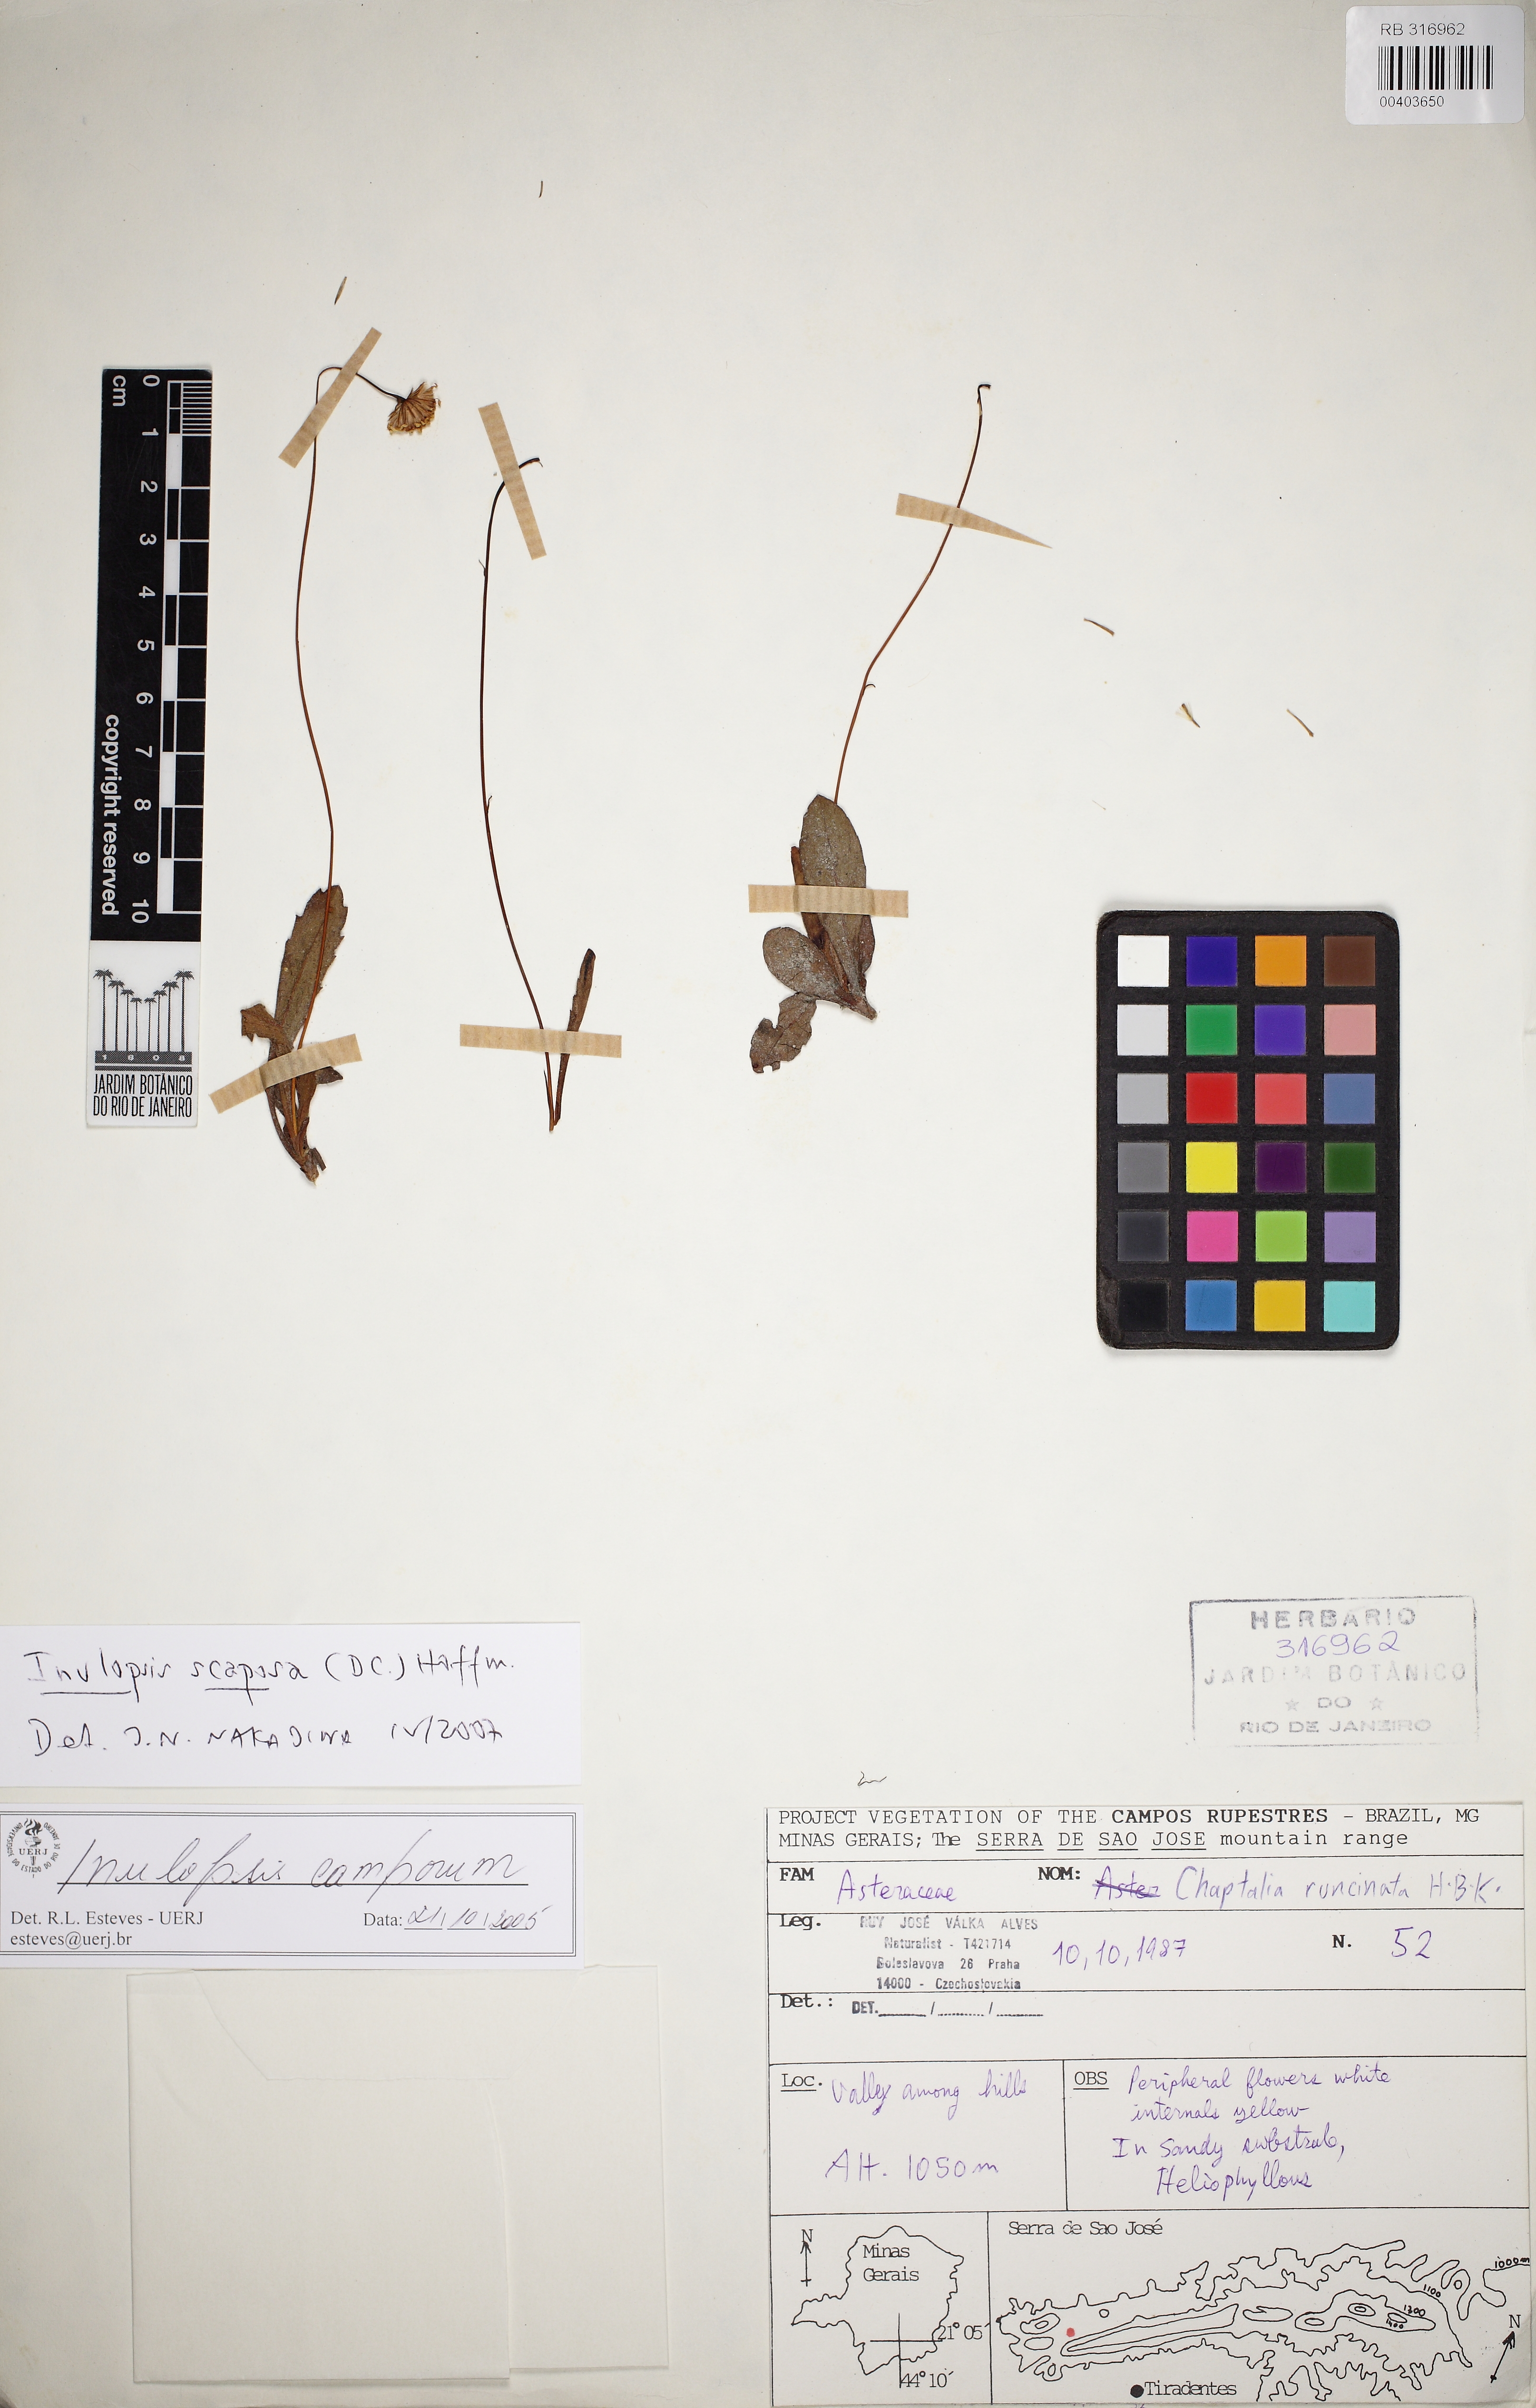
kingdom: Plantae
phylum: Tracheophyta
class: Magnoliopsida
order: Asterales
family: Asteraceae
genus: Inulopsis
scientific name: Inulopsis scaposa
